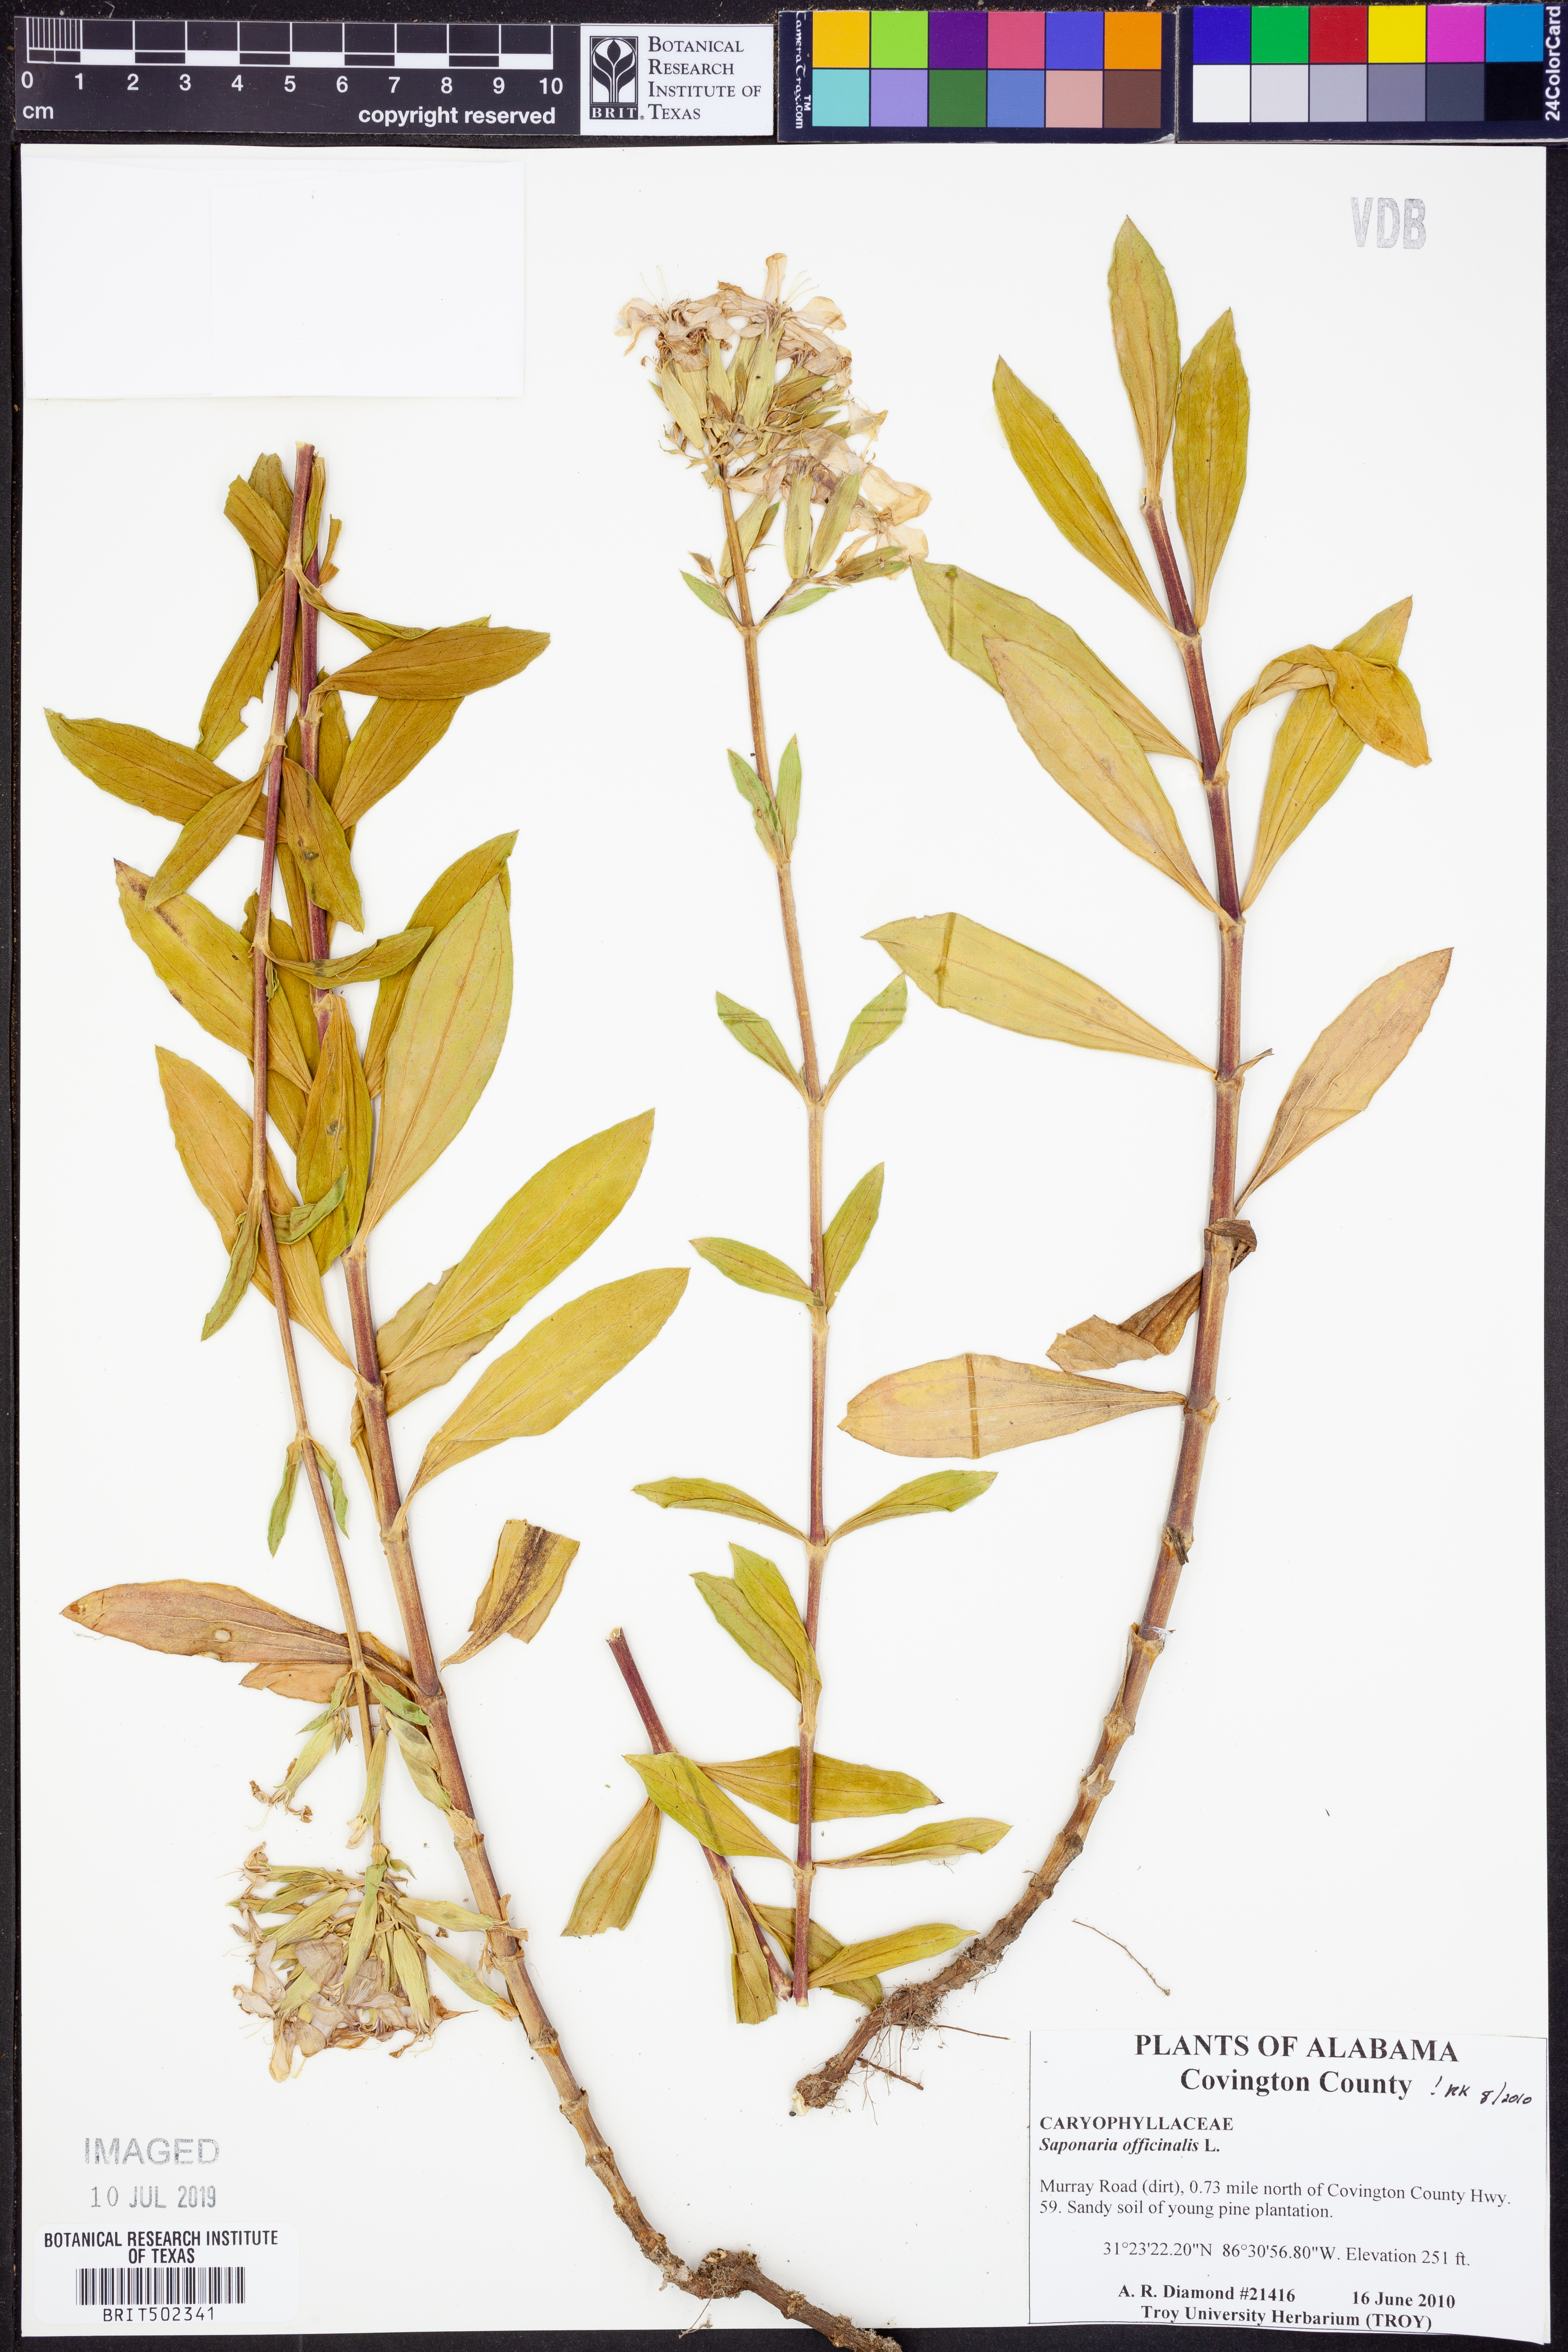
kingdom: Plantae
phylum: Tracheophyta
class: Magnoliopsida
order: Caryophyllales
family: Caryophyllaceae
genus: Saponaria
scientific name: Saponaria officinalis
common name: Soapwort
